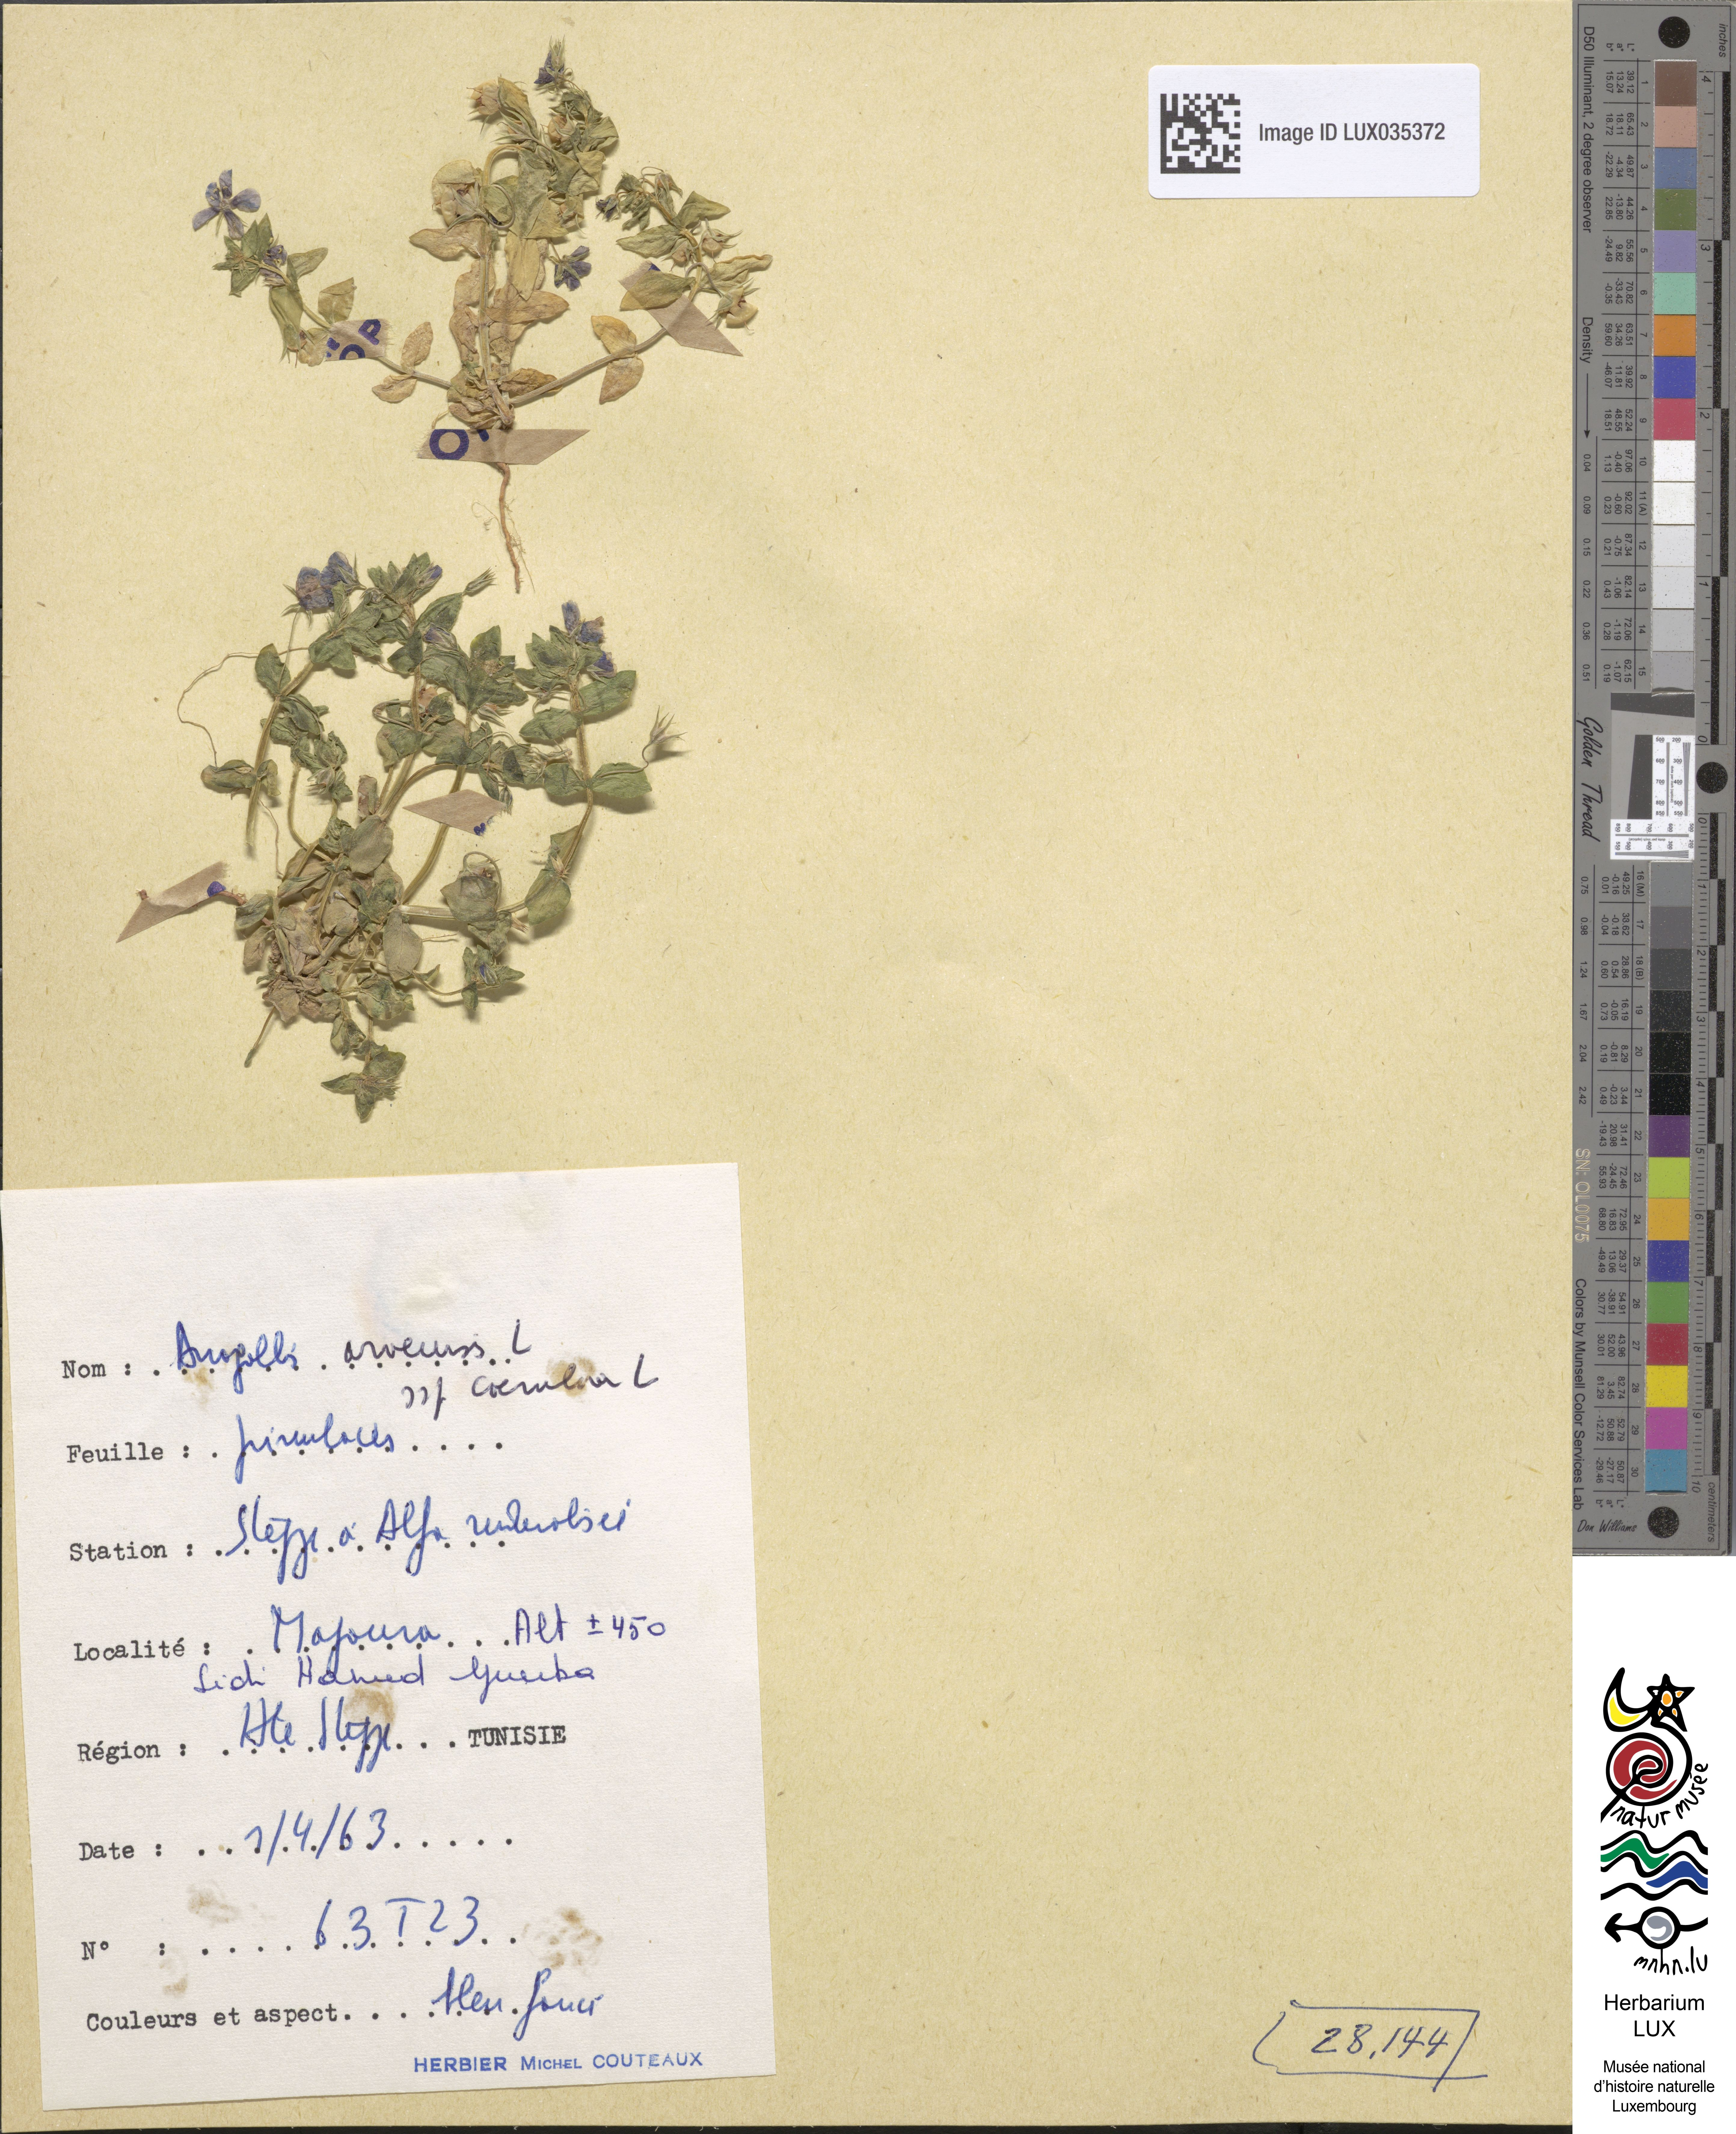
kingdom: Plantae
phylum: Tracheophyta
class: Magnoliopsida
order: Ericales
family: Primulaceae
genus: Lysimachia
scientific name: Lysimachia foemina
